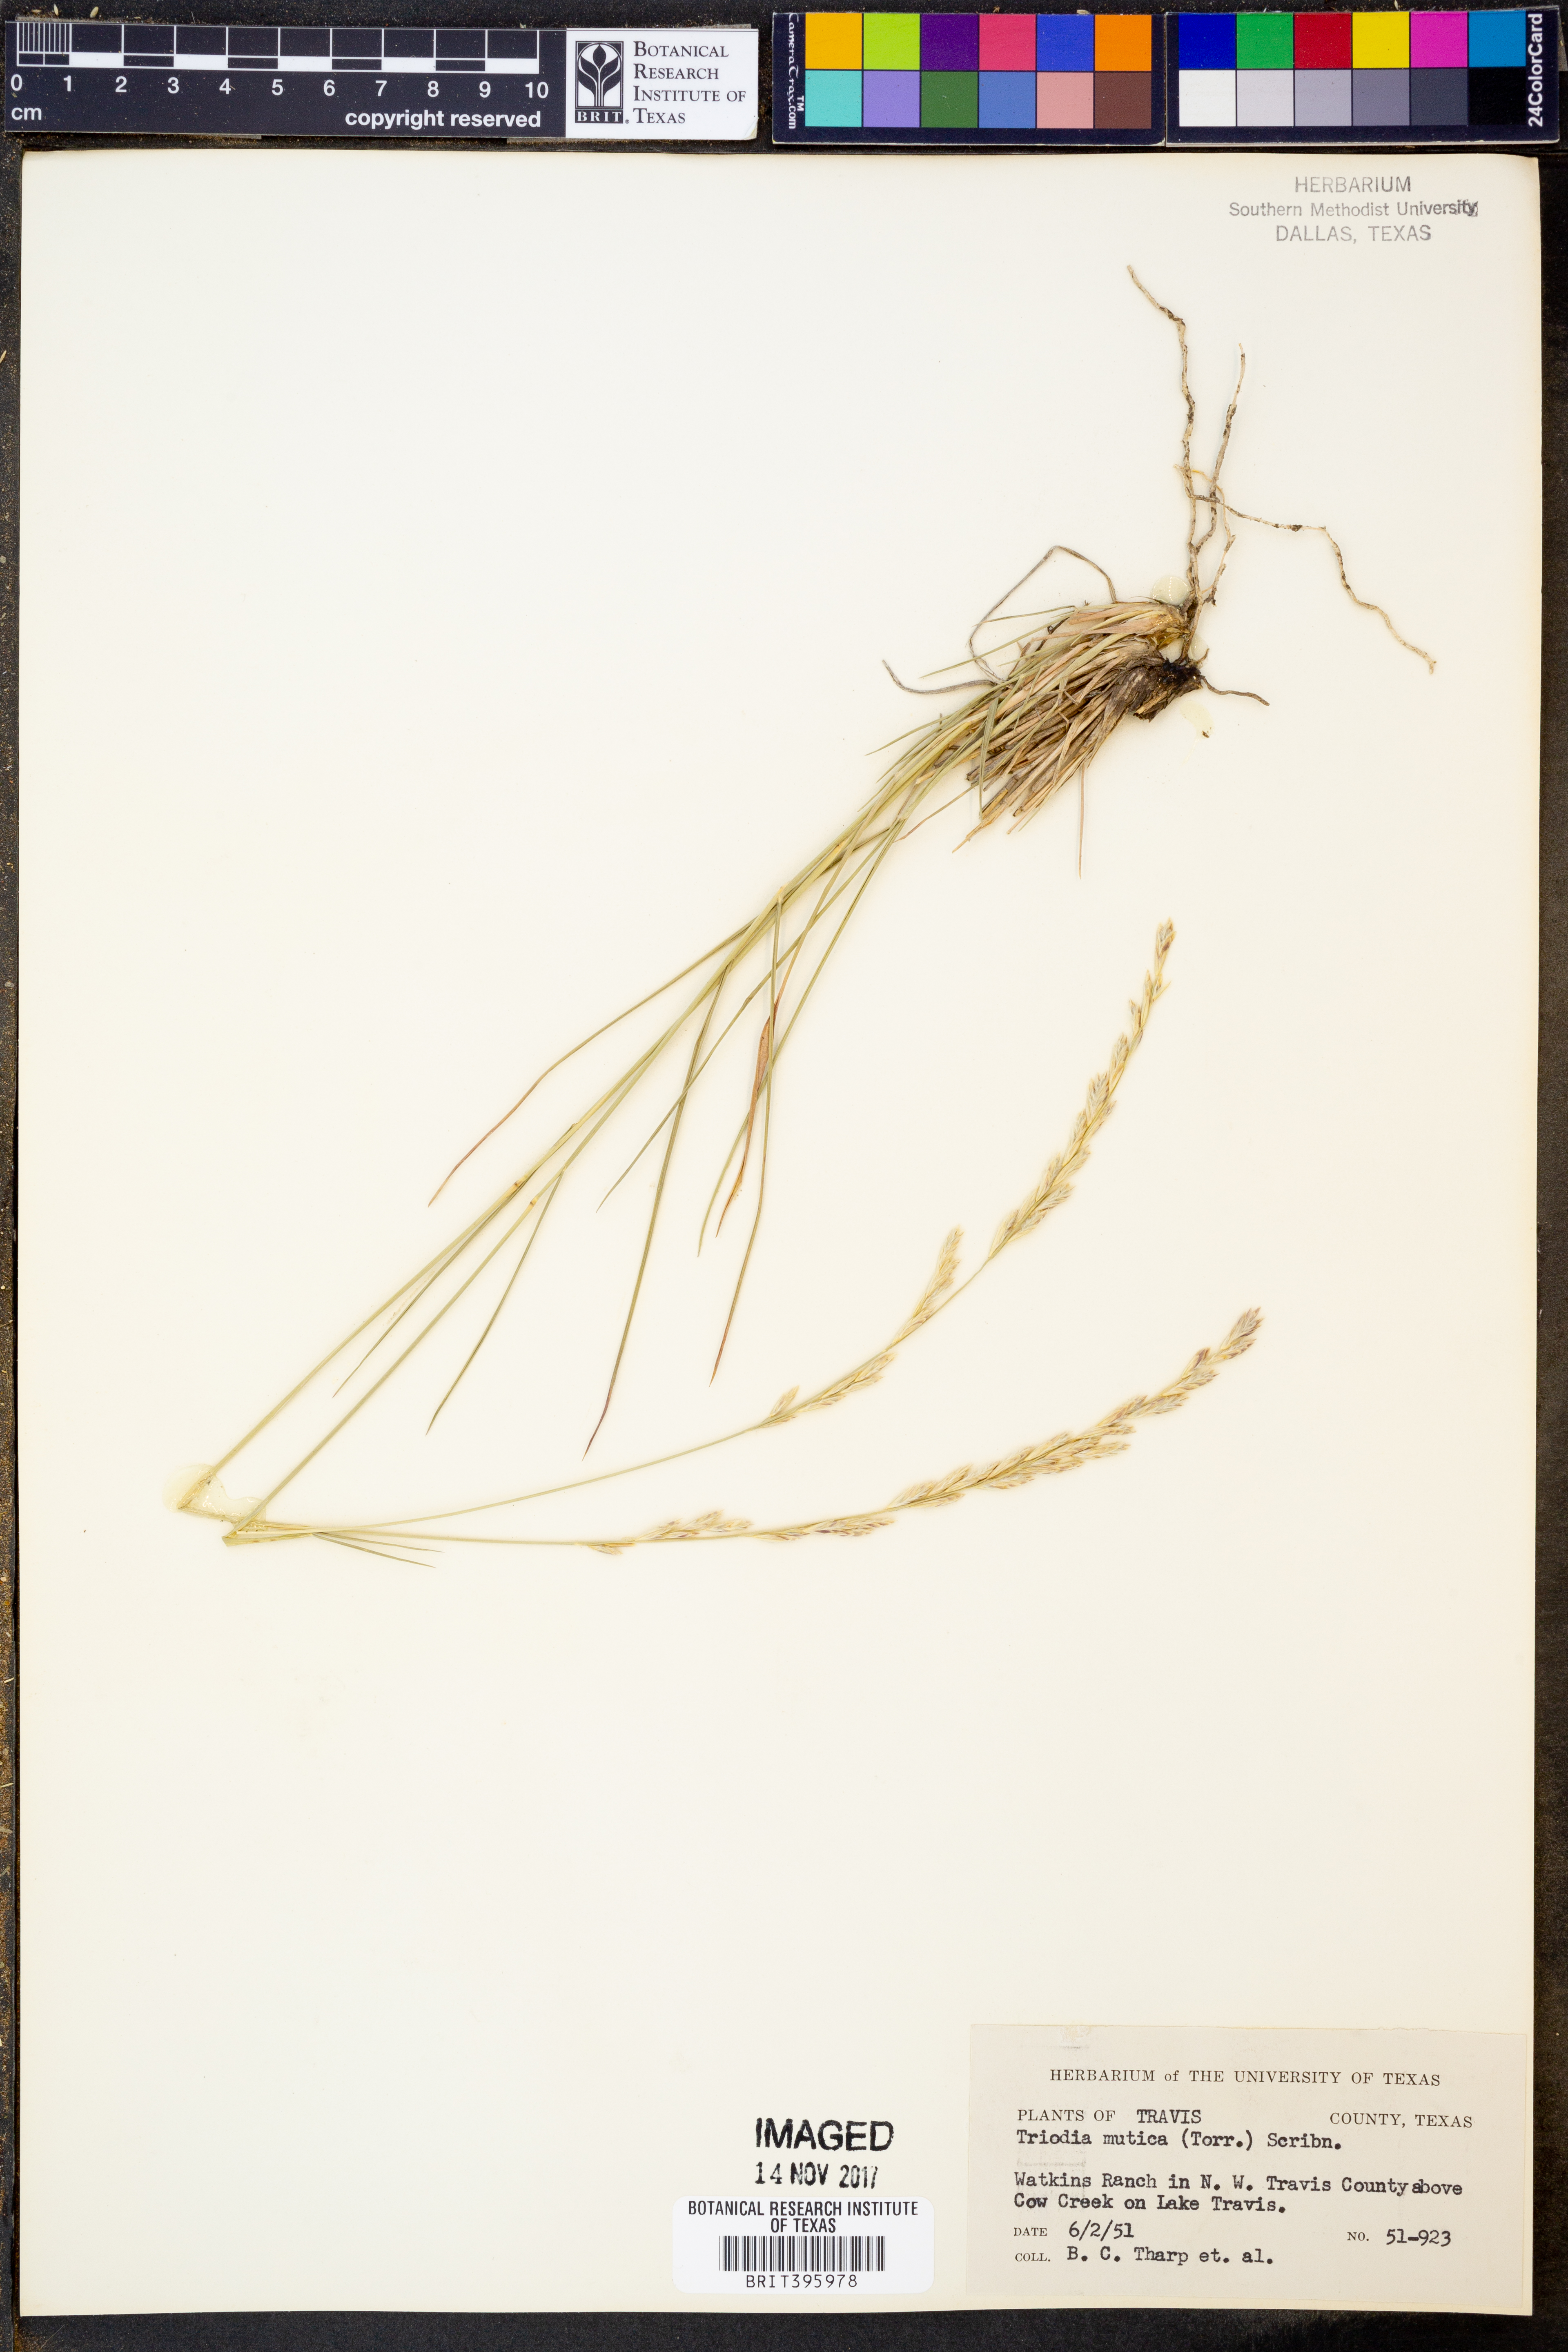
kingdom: Plantae
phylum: Tracheophyta
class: Liliopsida
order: Poales
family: Poaceae
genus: Tridentopsis
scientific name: Tridentopsis mutica
